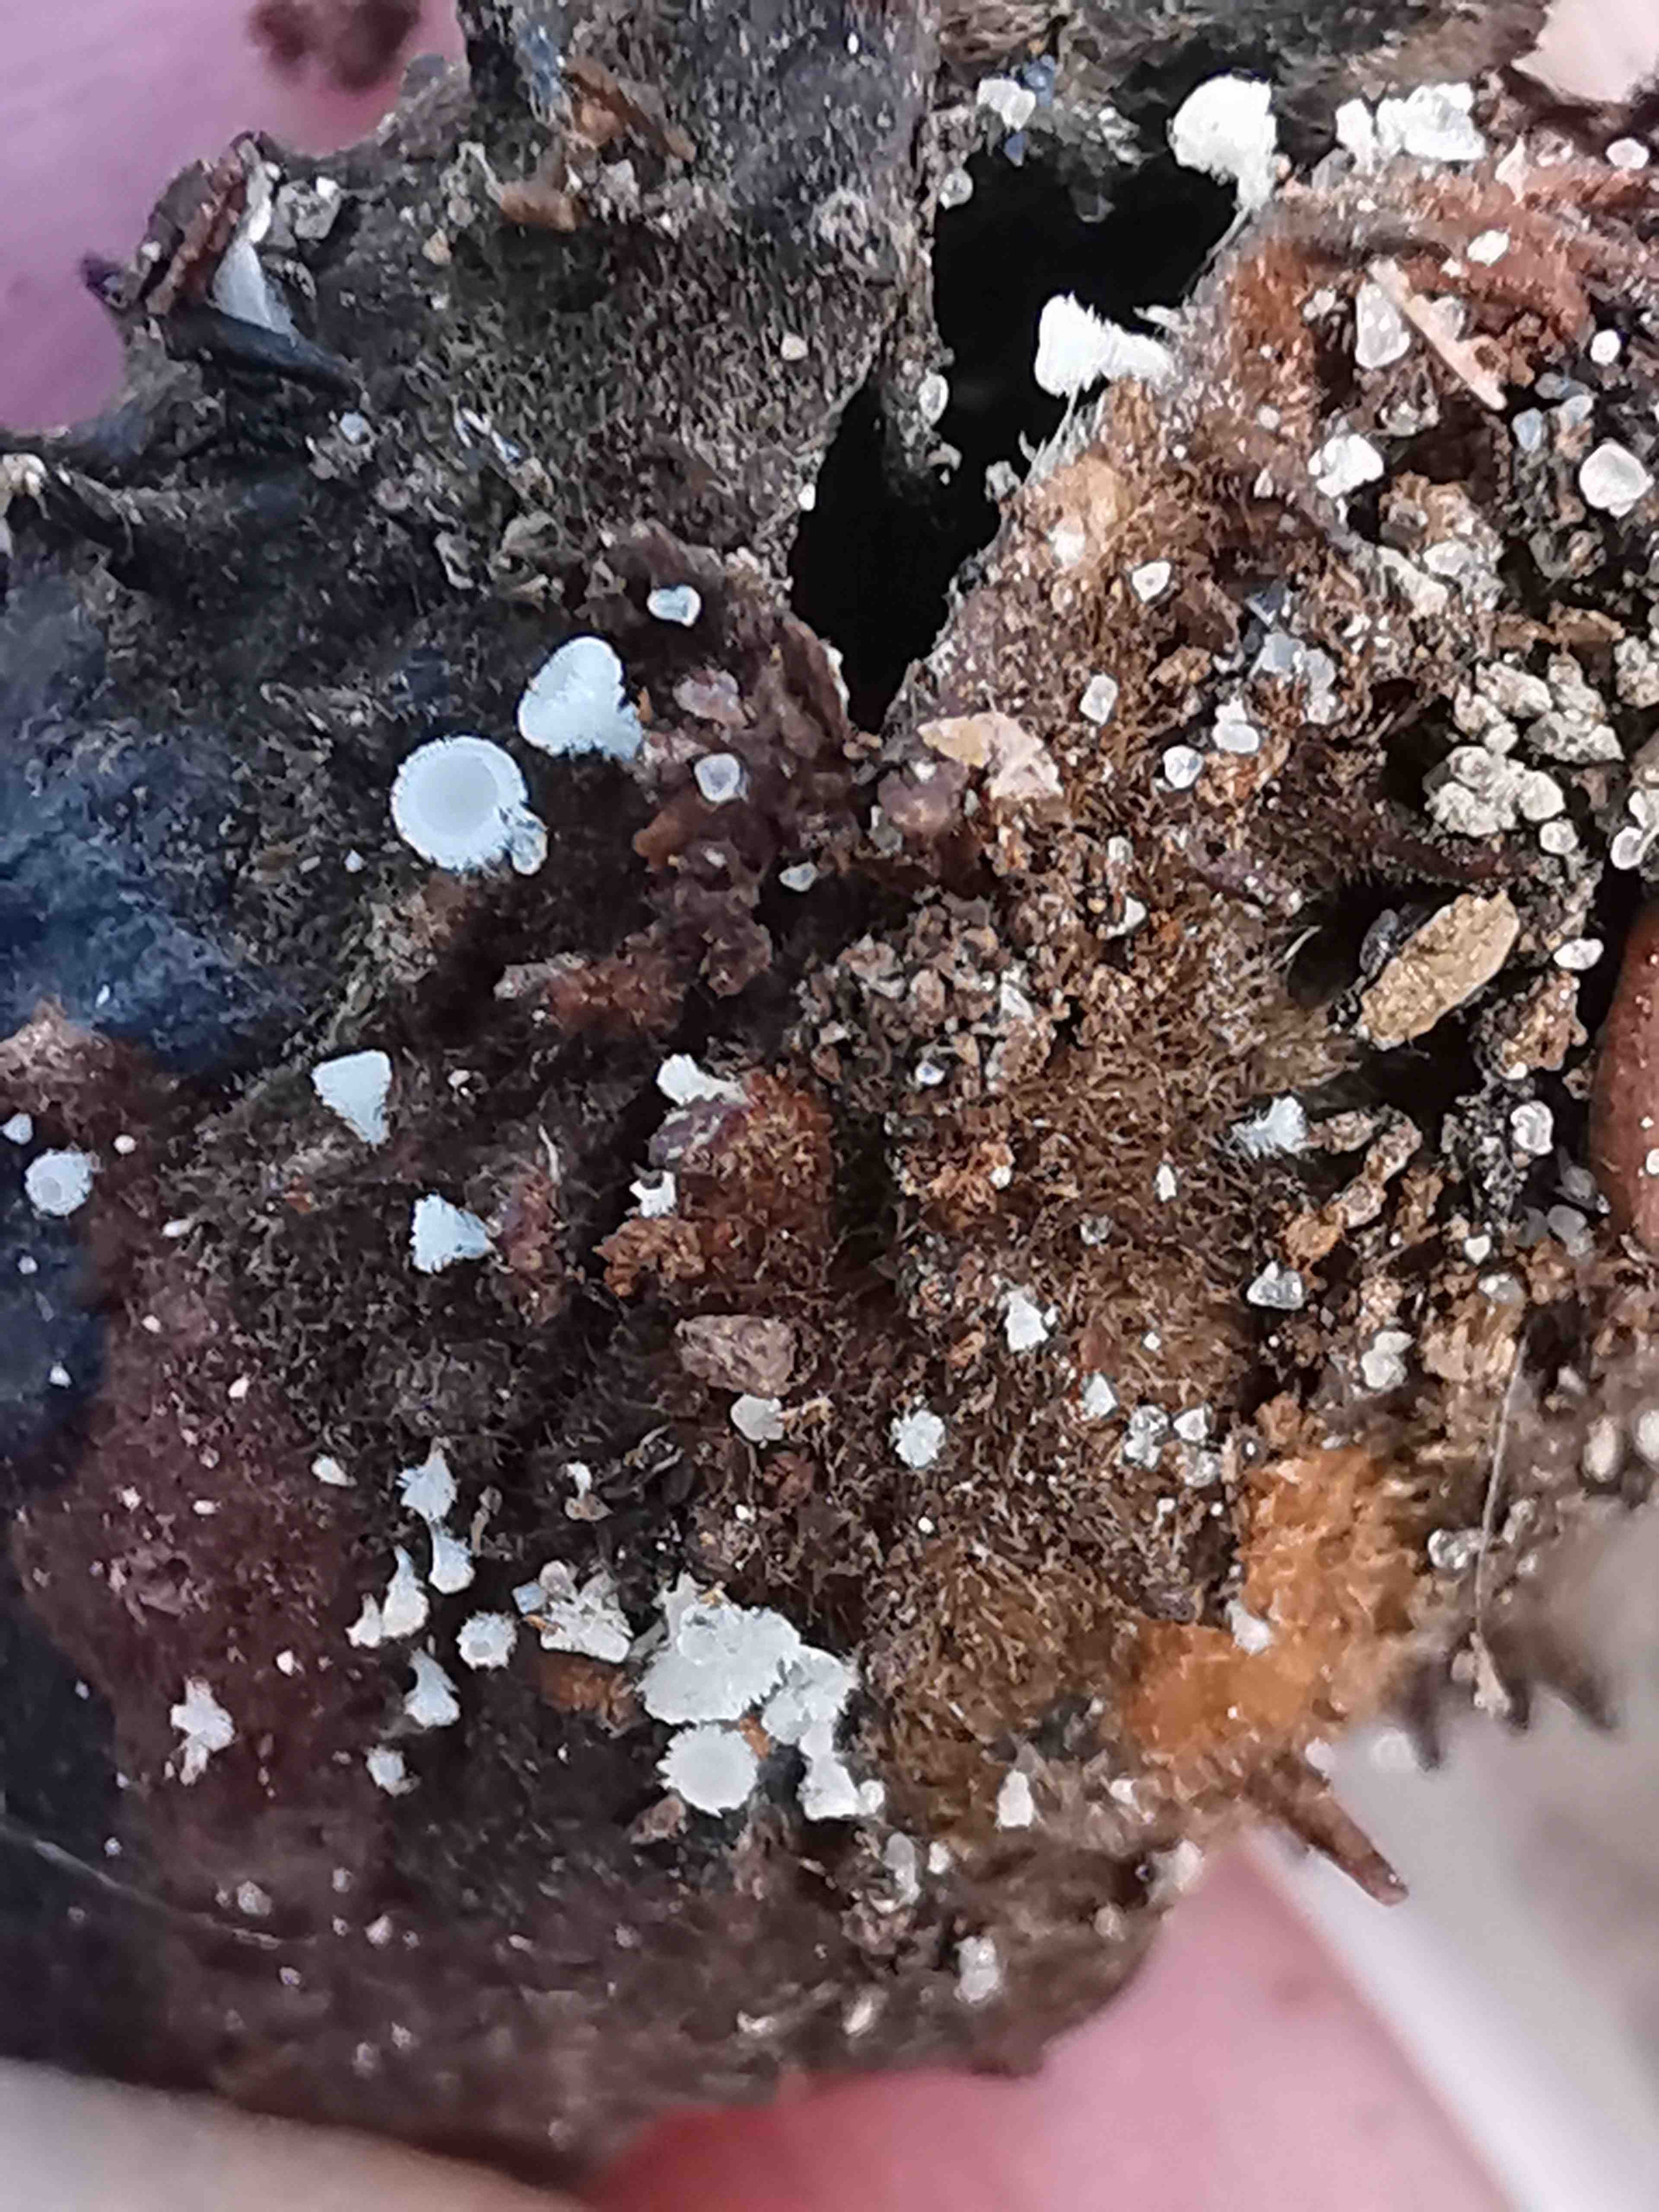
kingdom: Fungi
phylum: Ascomycota
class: Leotiomycetes
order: Helotiales
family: Lachnaceae
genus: Lachnum
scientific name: Lachnum virgineum
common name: jomfru-frynseskive
